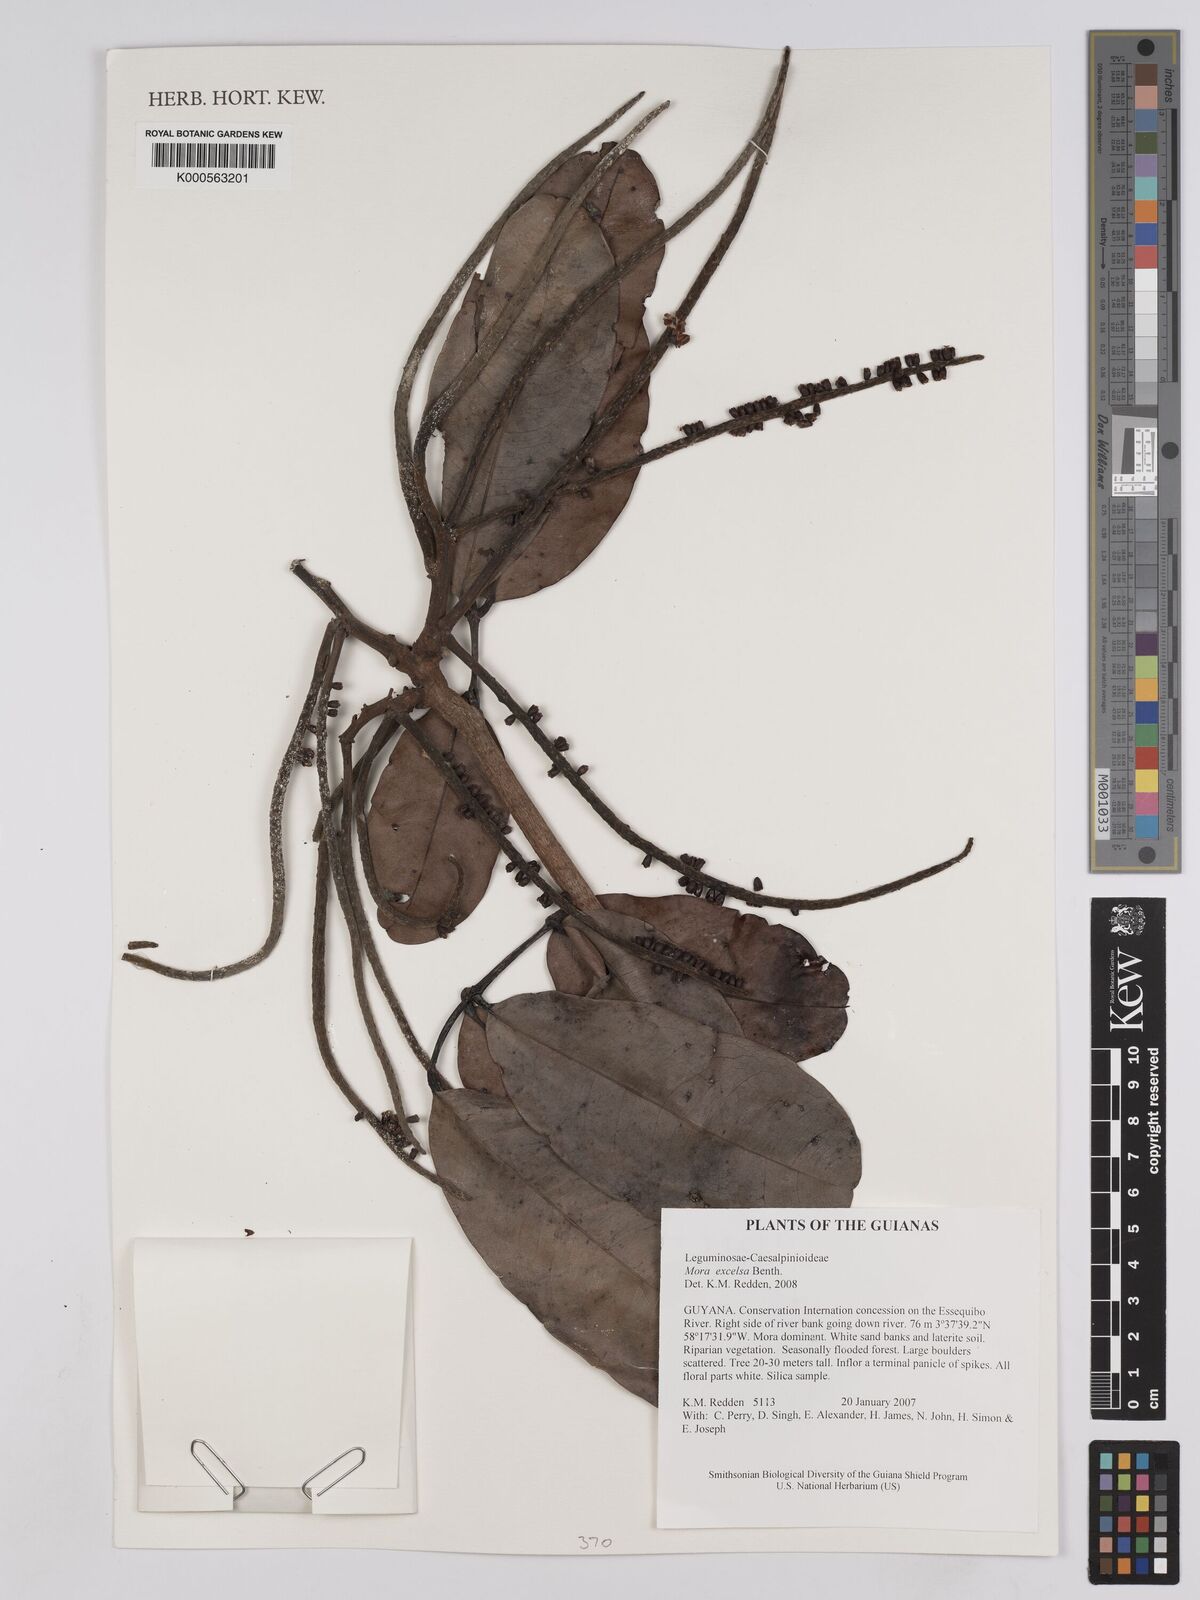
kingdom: Plantae
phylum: Tracheophyta
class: Magnoliopsida
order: Fabales
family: Fabaceae
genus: Mora
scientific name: Mora excelsa
